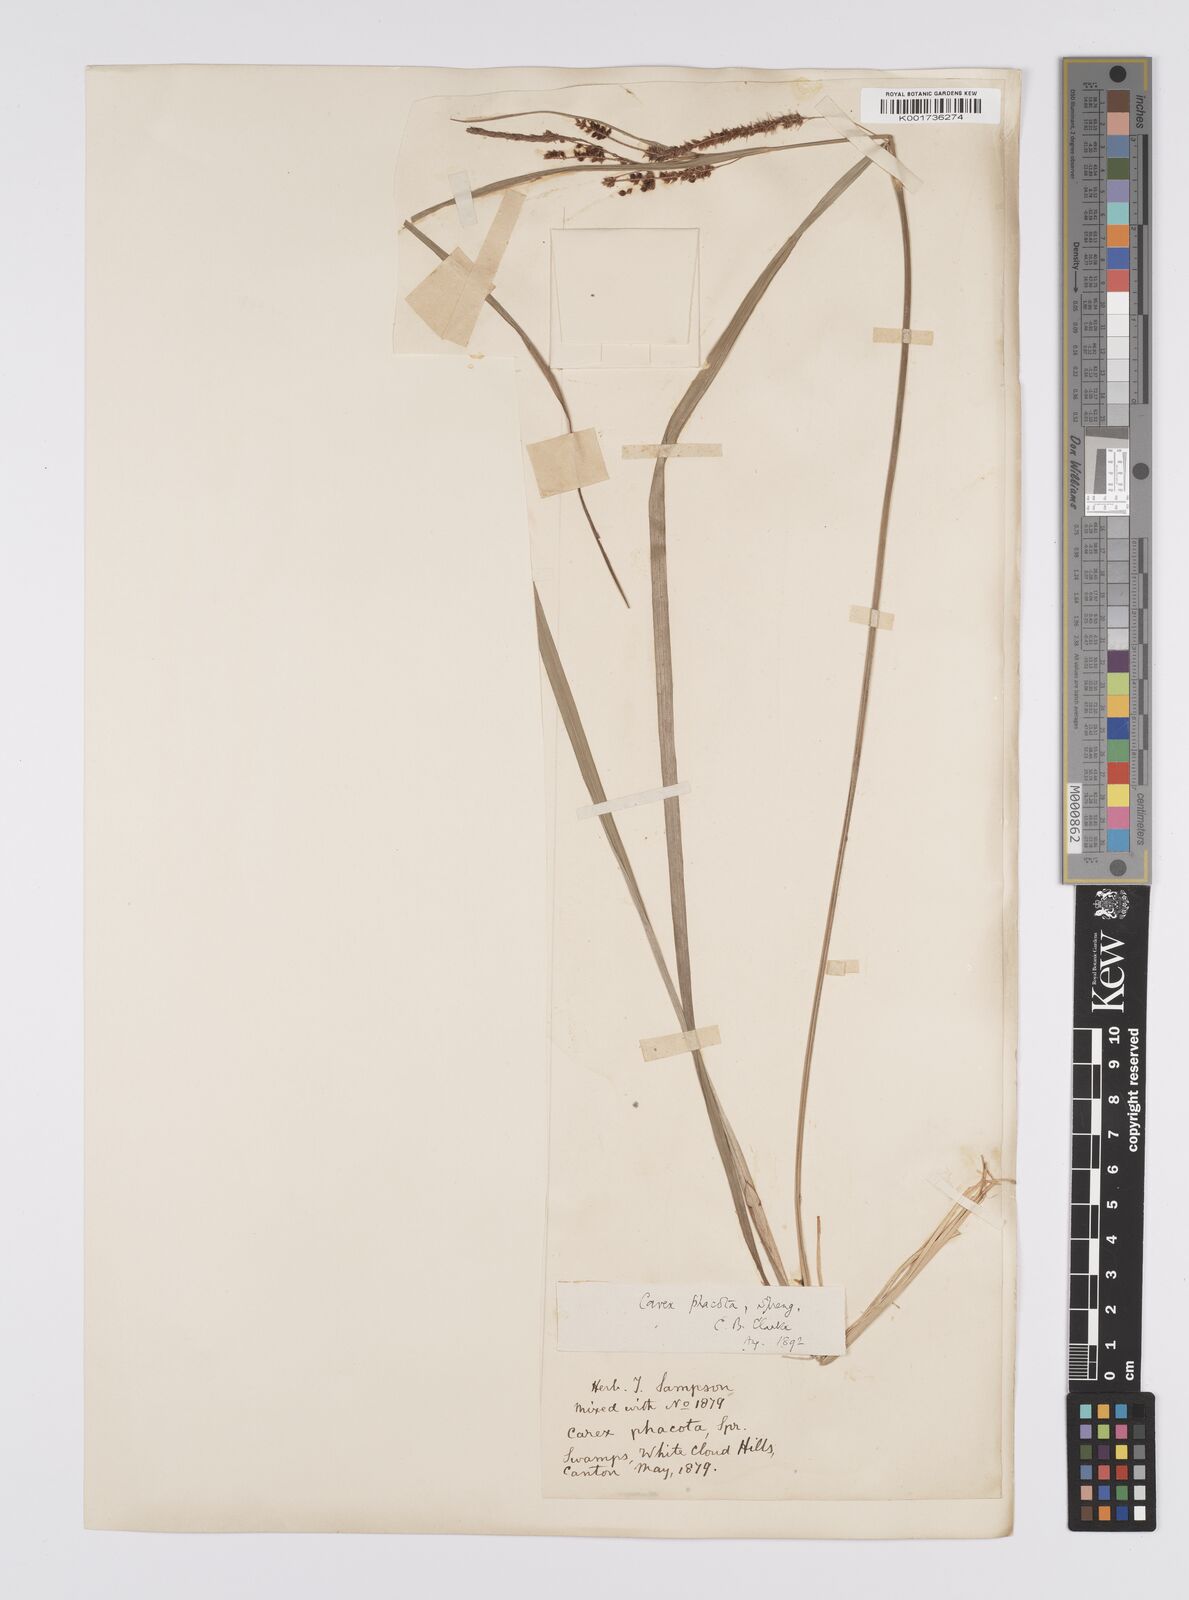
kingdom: Plantae
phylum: Tracheophyta
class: Liliopsida
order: Poales
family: Cyperaceae
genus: Carex
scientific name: Carex phacota
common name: Lakeshore sedge
